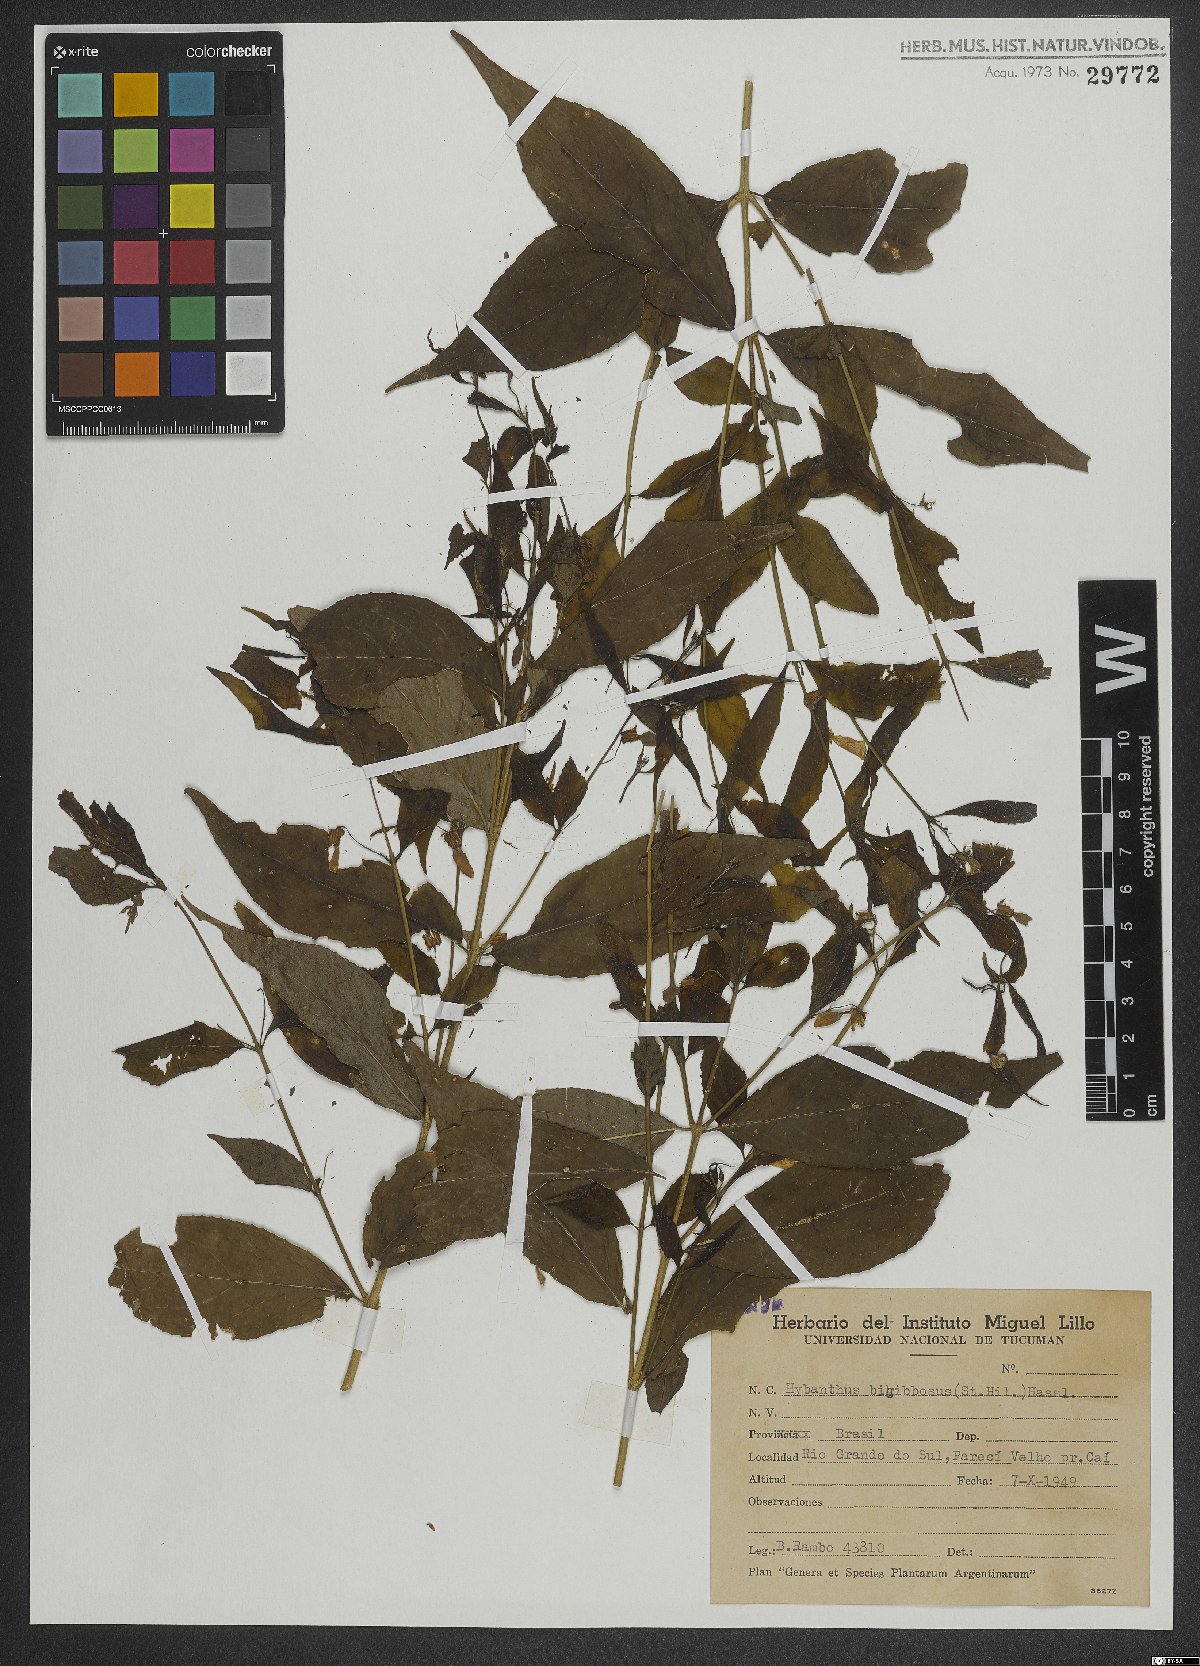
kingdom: Plantae
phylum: Tracheophyta
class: Magnoliopsida
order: Malpighiales
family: Violaceae
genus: Pombalia
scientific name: Pombalia bigibbosa
